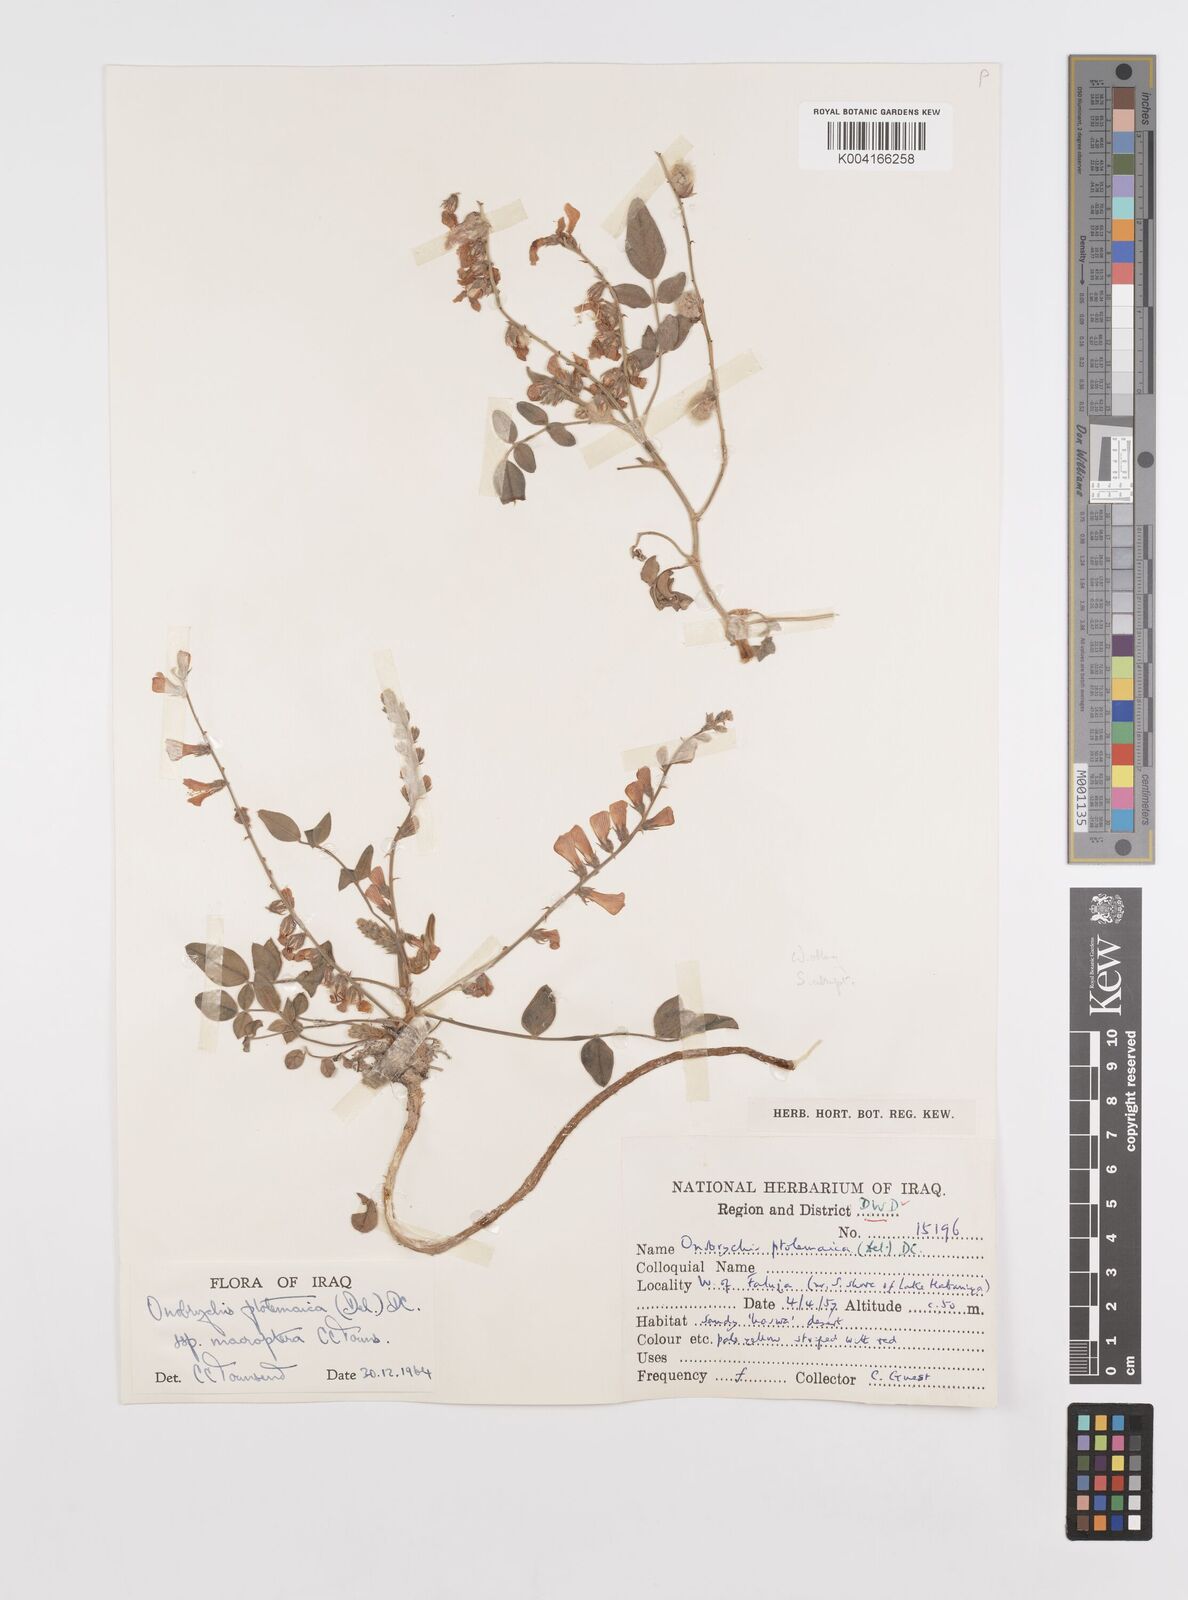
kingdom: Plantae
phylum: Tracheophyta
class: Magnoliopsida
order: Fabales
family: Fabaceae
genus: Onobrychis
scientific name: Onobrychis ptolemaica
